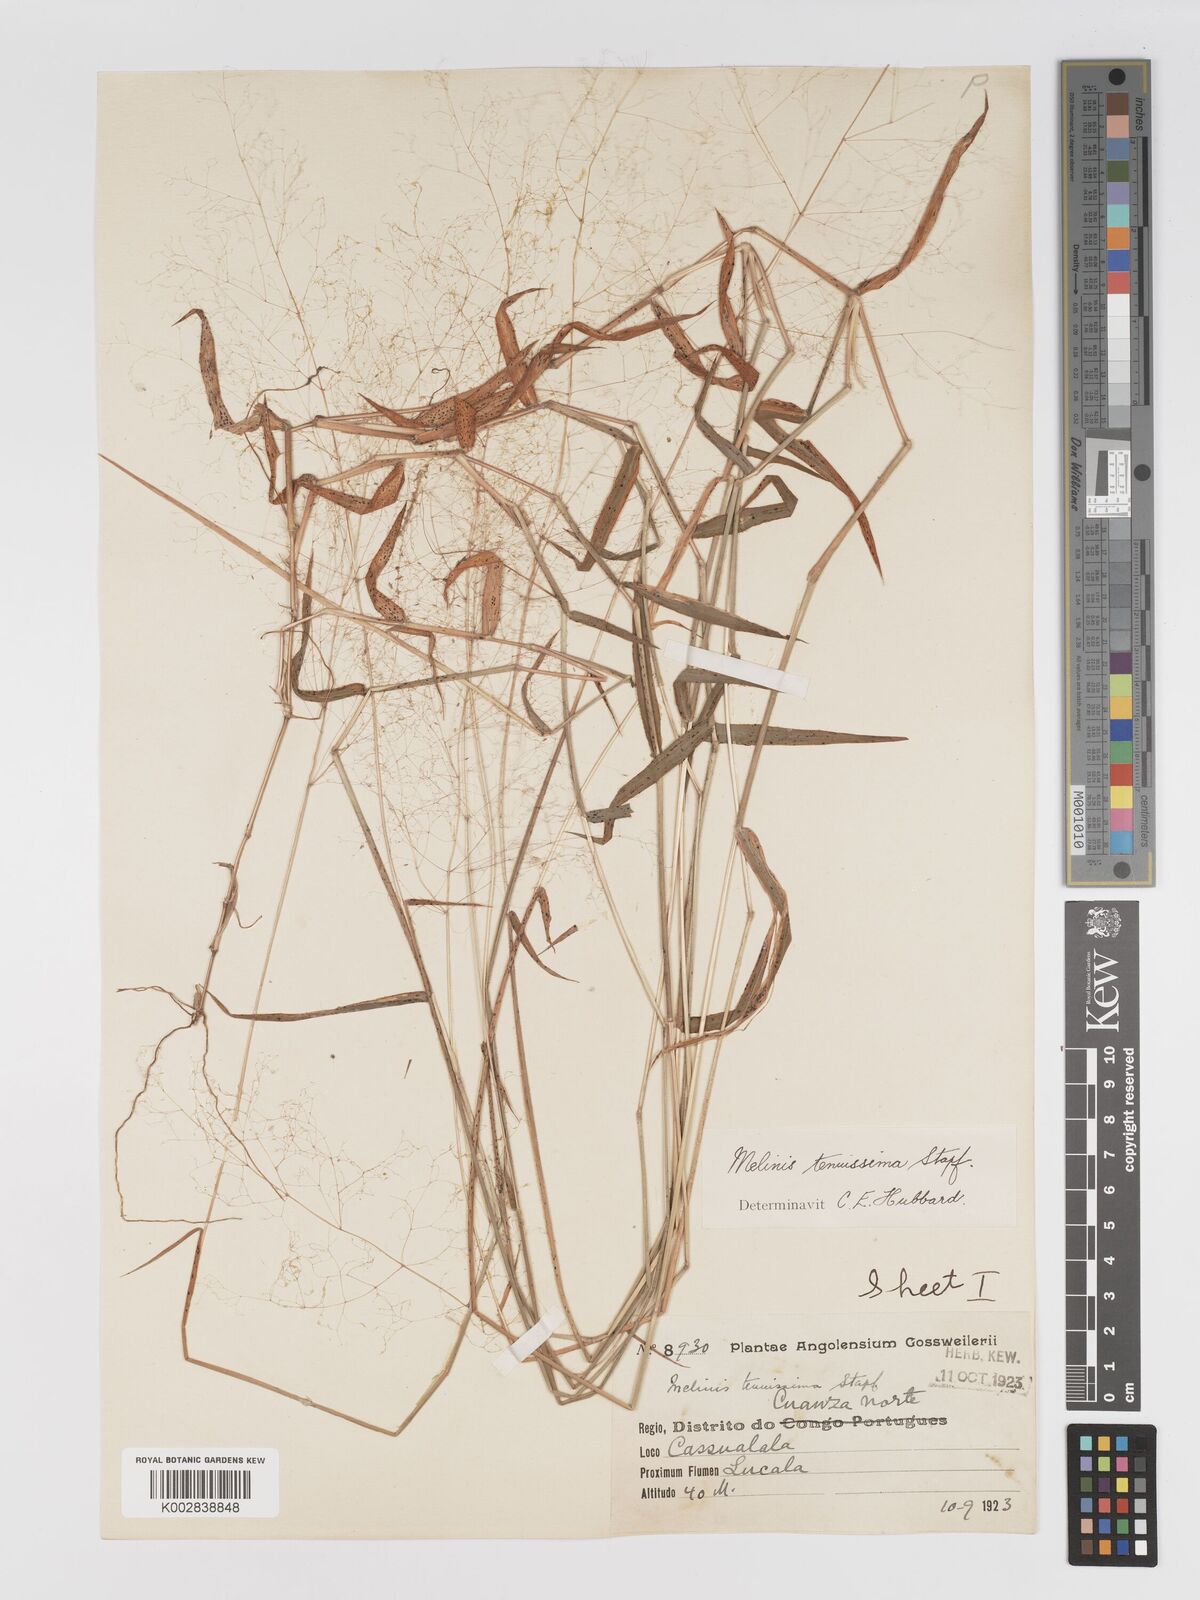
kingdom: Plantae
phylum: Tracheophyta
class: Liliopsida
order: Poales
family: Poaceae
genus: Melinis
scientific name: Melinis tenuissima
